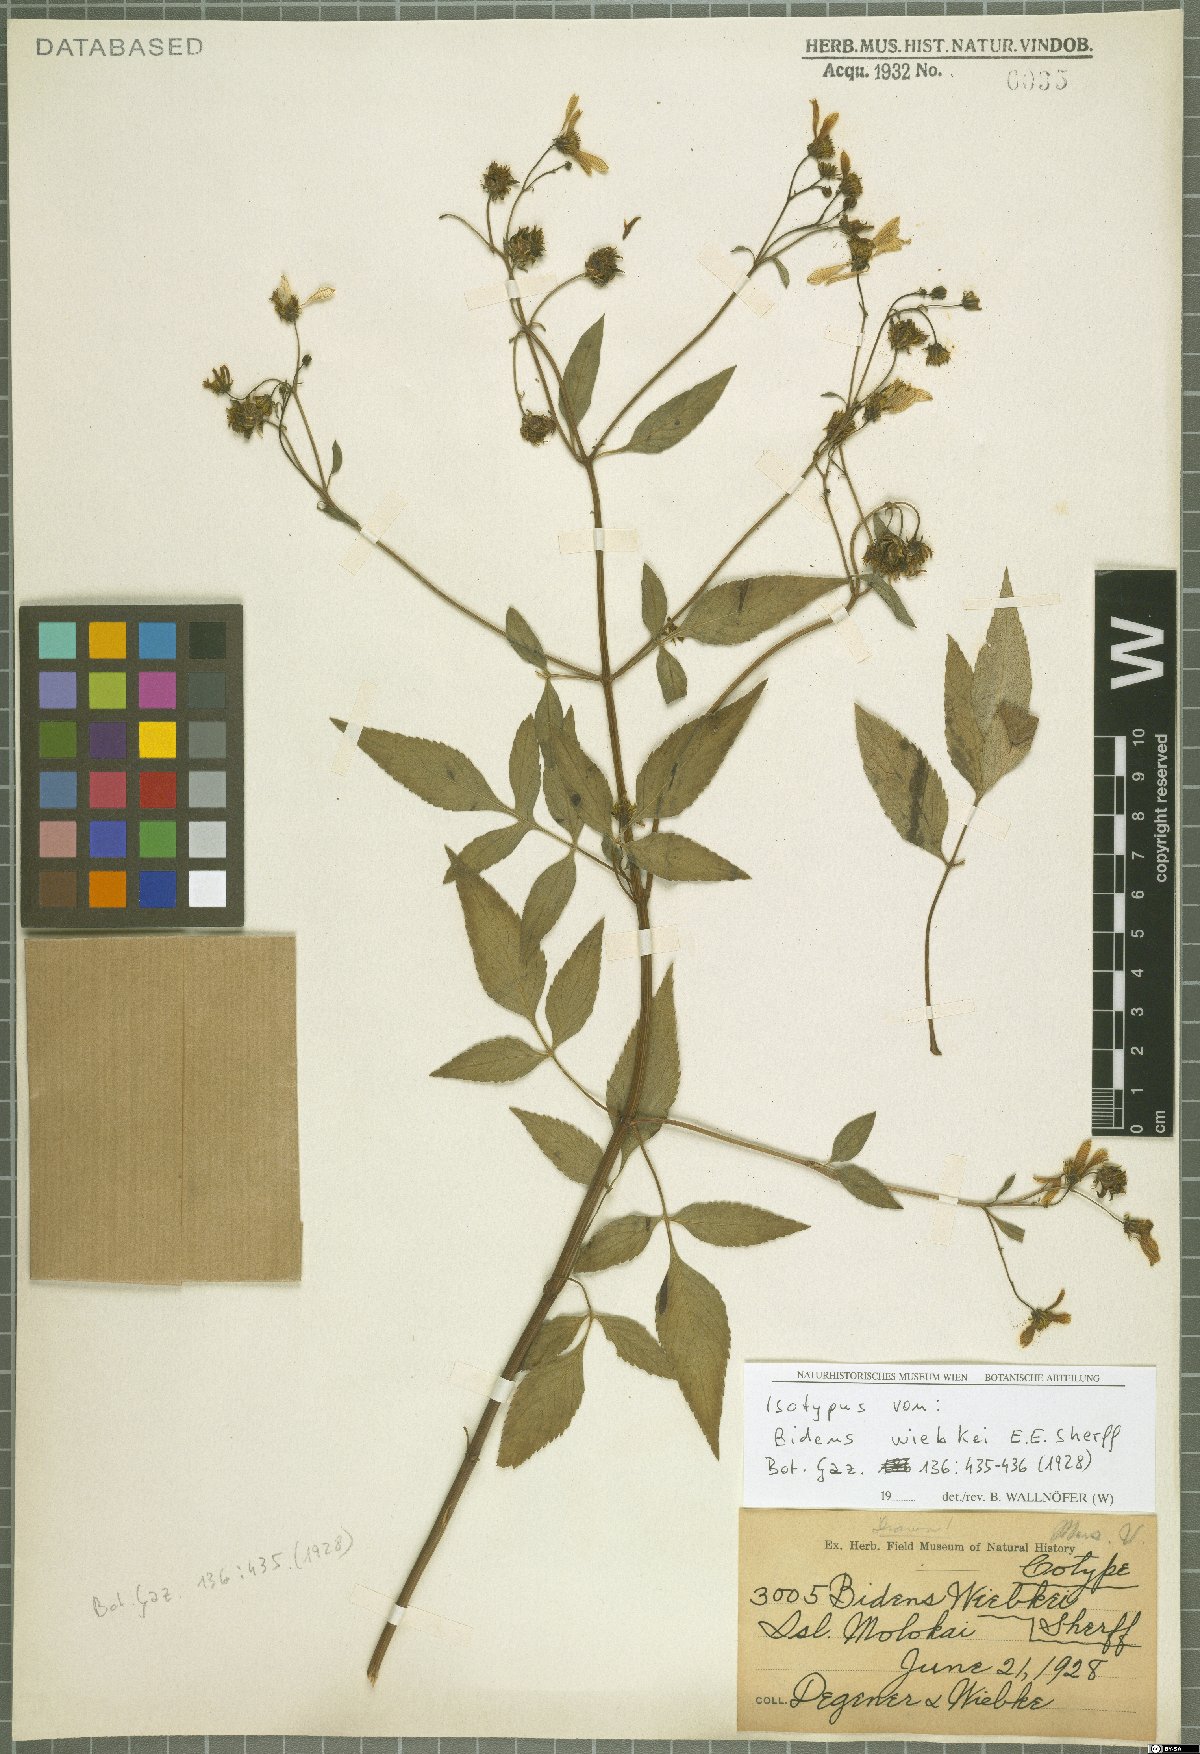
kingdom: Plantae
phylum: Tracheophyta
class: Magnoliopsida
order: Asterales
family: Asteraceae
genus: Bidens
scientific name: Bidens wiebkei
